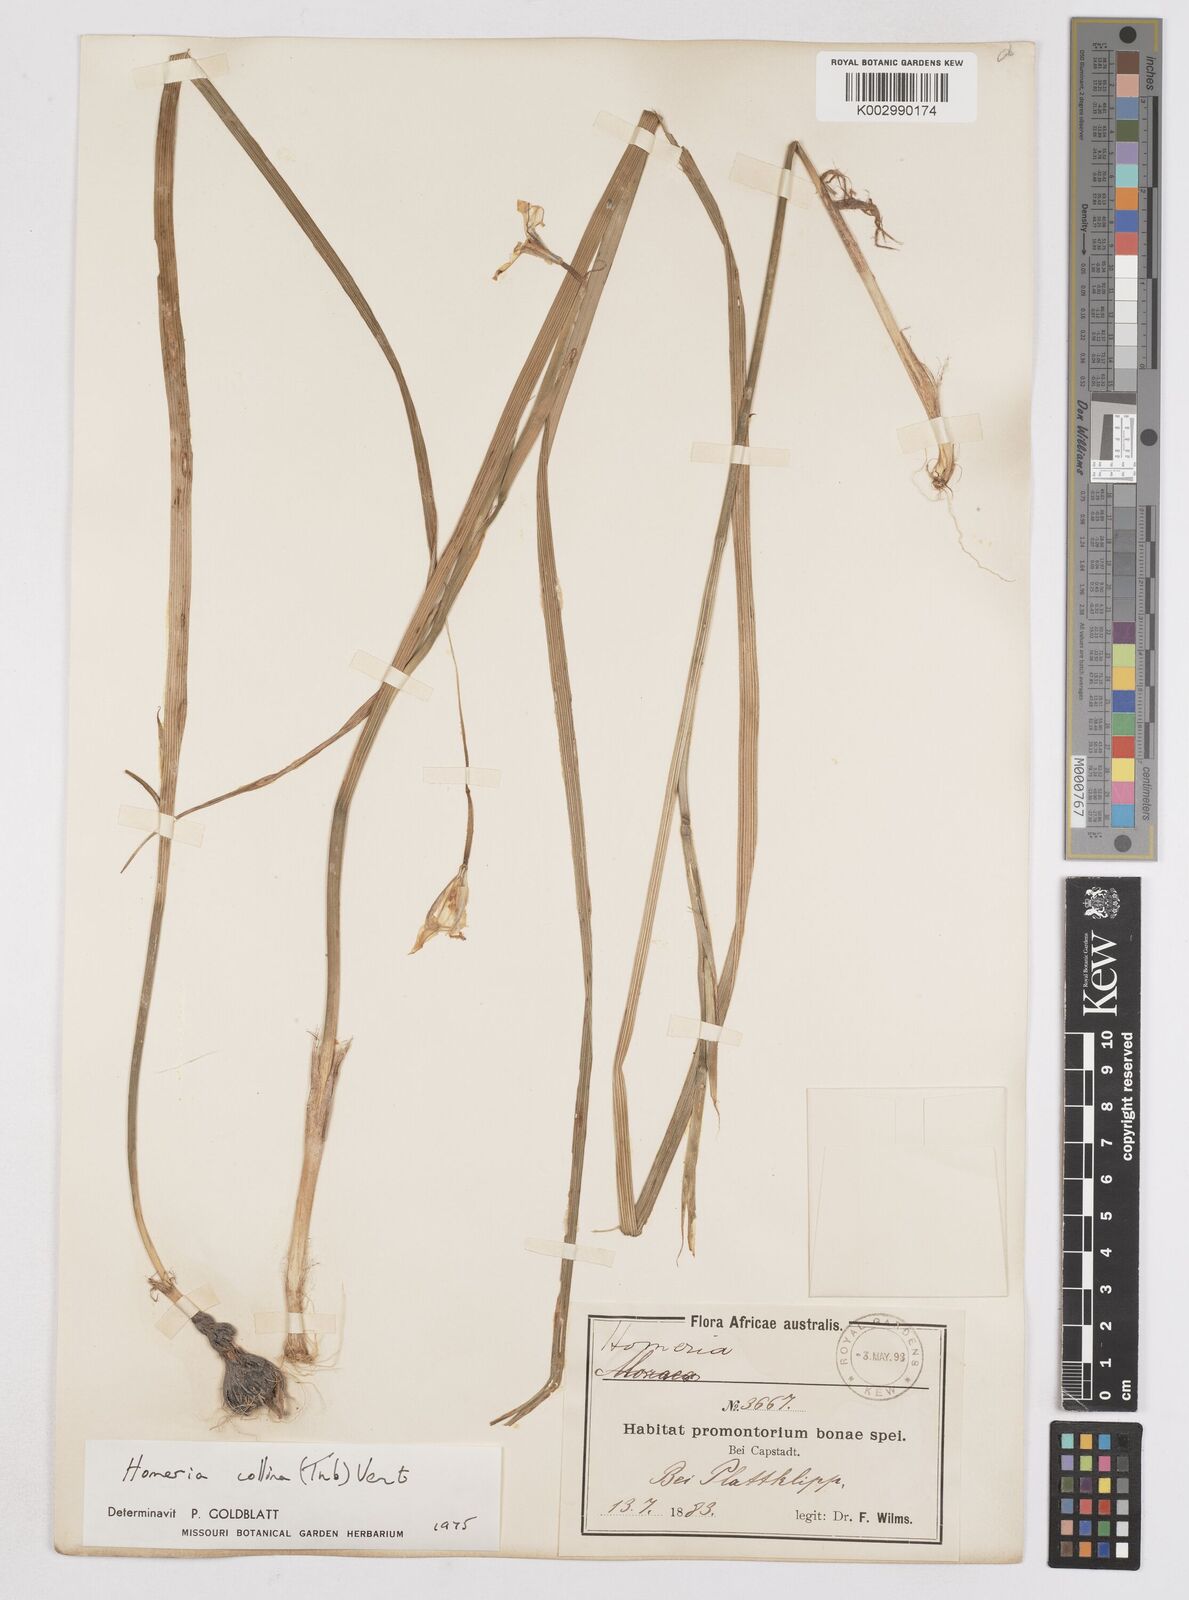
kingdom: Plantae
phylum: Tracheophyta
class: Liliopsida
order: Asparagales
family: Iridaceae
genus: Moraea
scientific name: Moraea collina
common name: Cape-tulip
